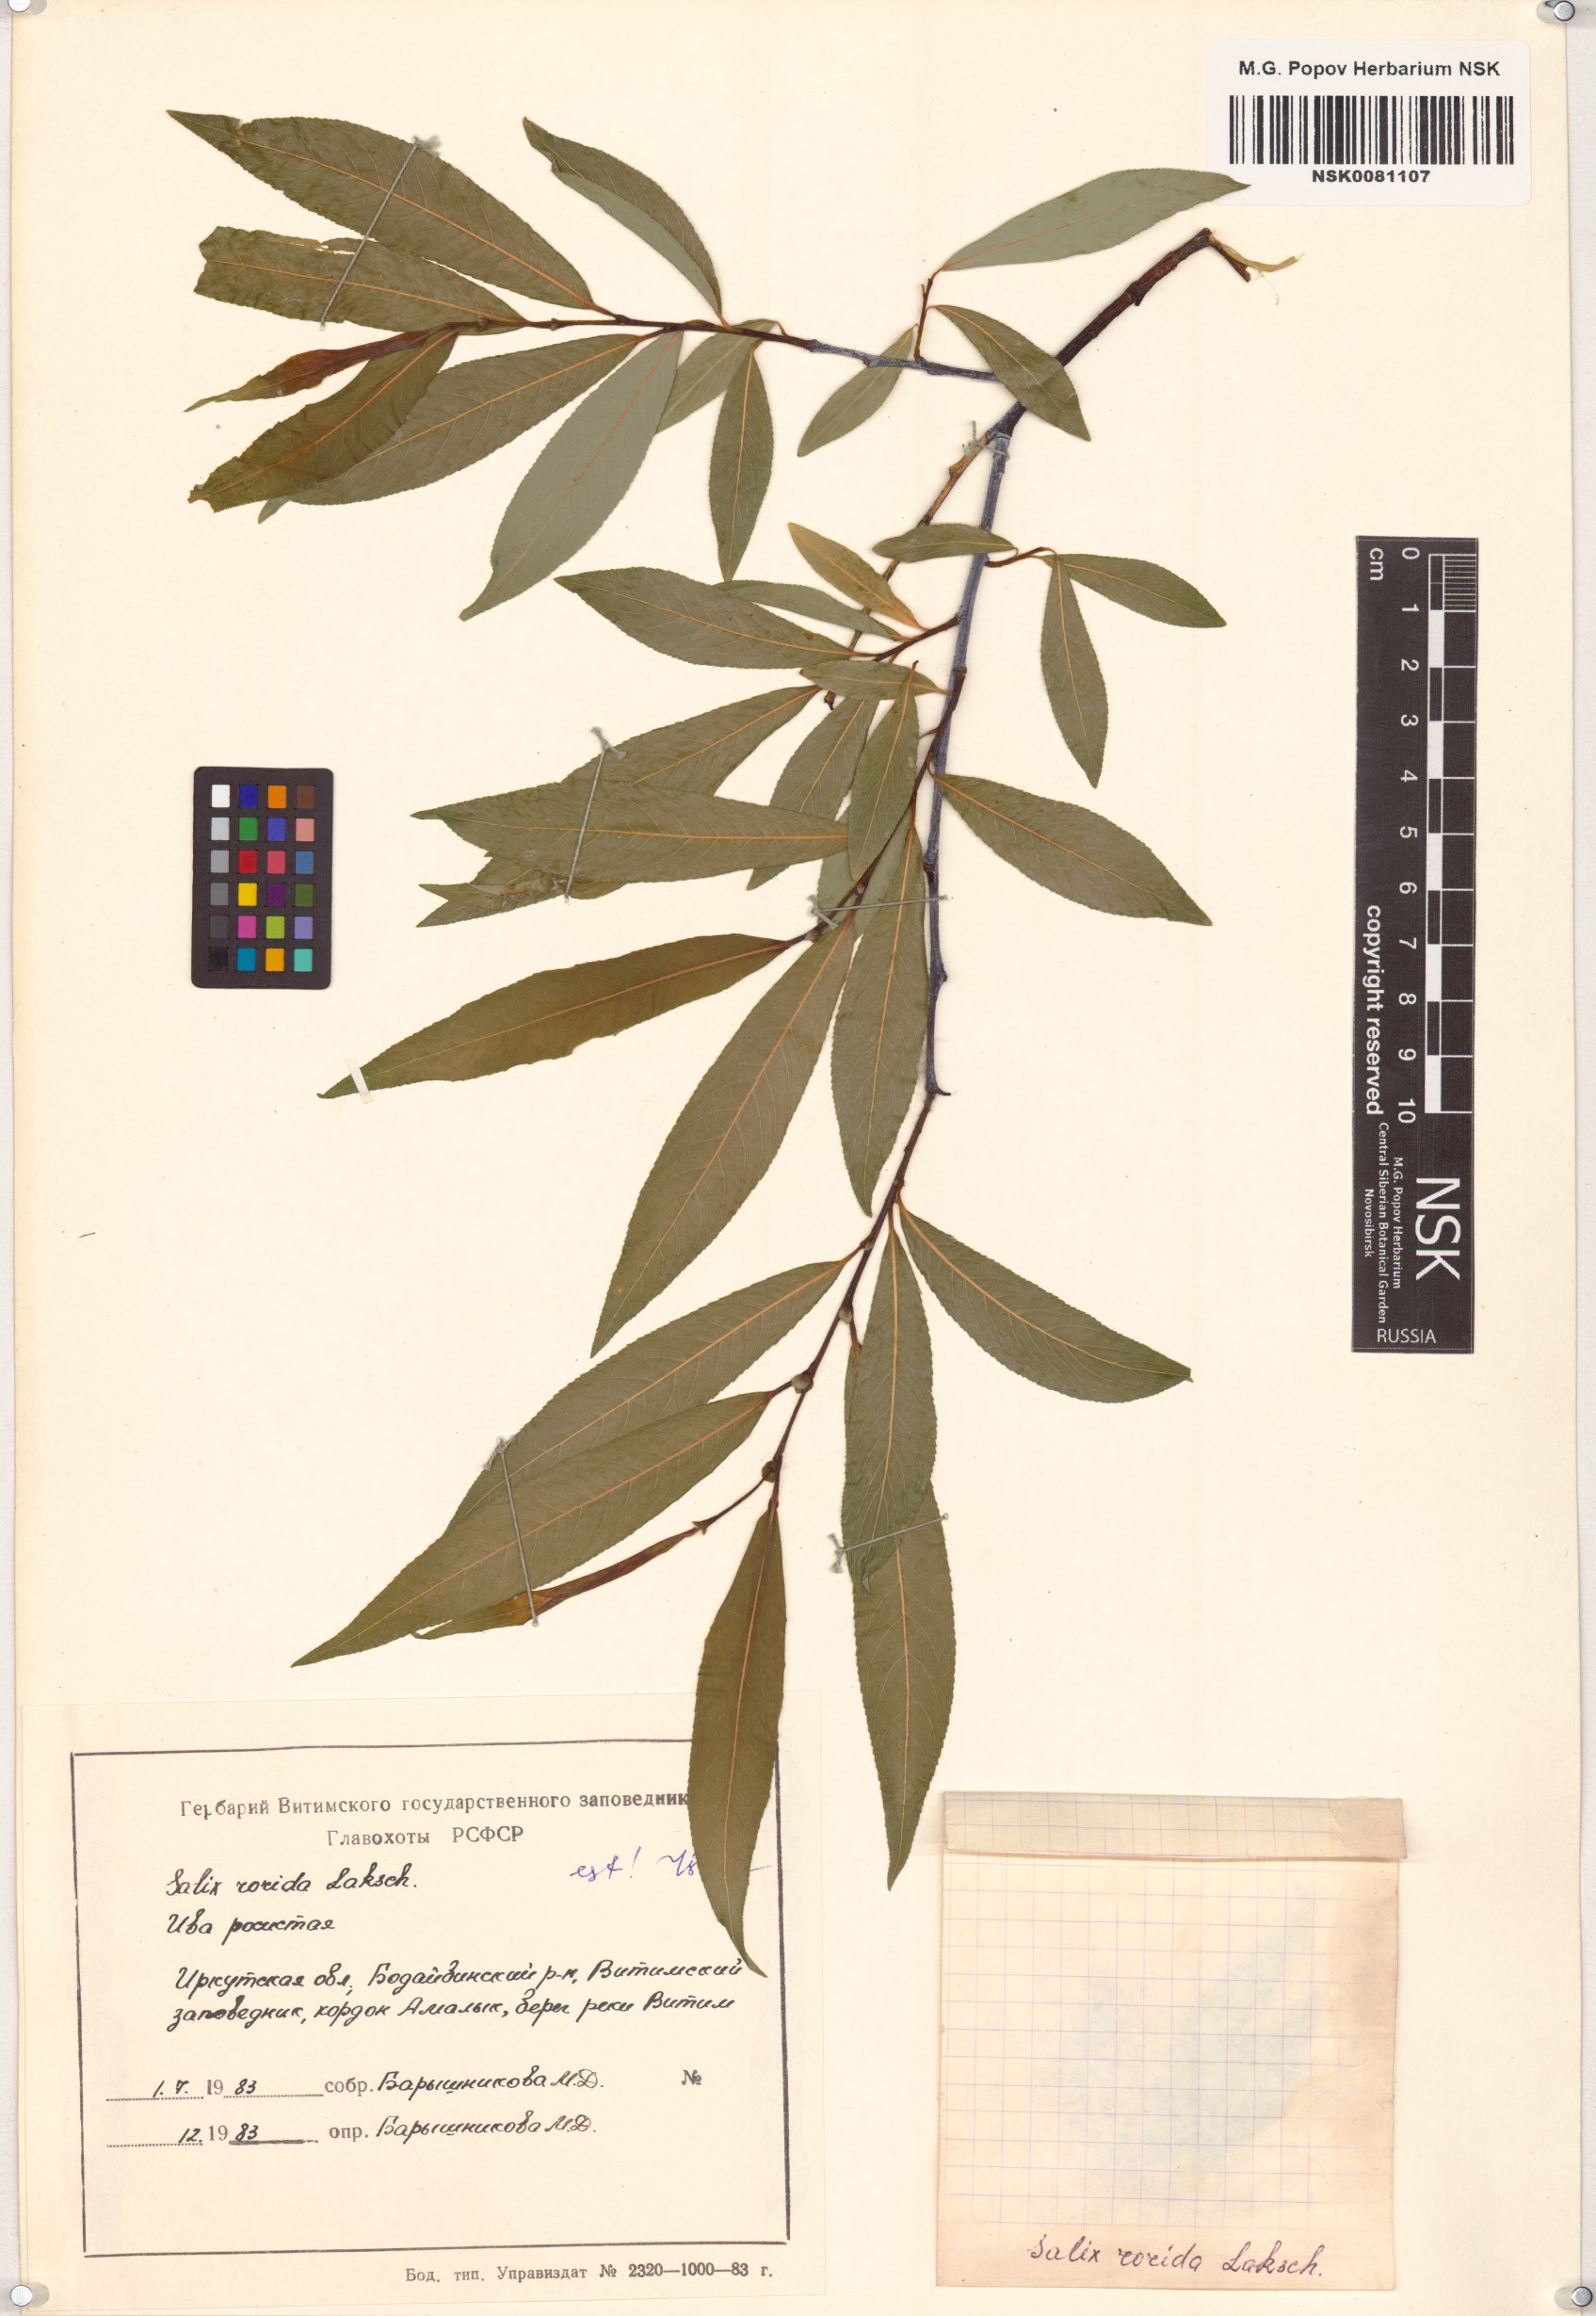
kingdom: Plantae
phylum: Tracheophyta
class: Magnoliopsida
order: Malpighiales
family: Salicaceae
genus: Salix
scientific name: Salix rorida
